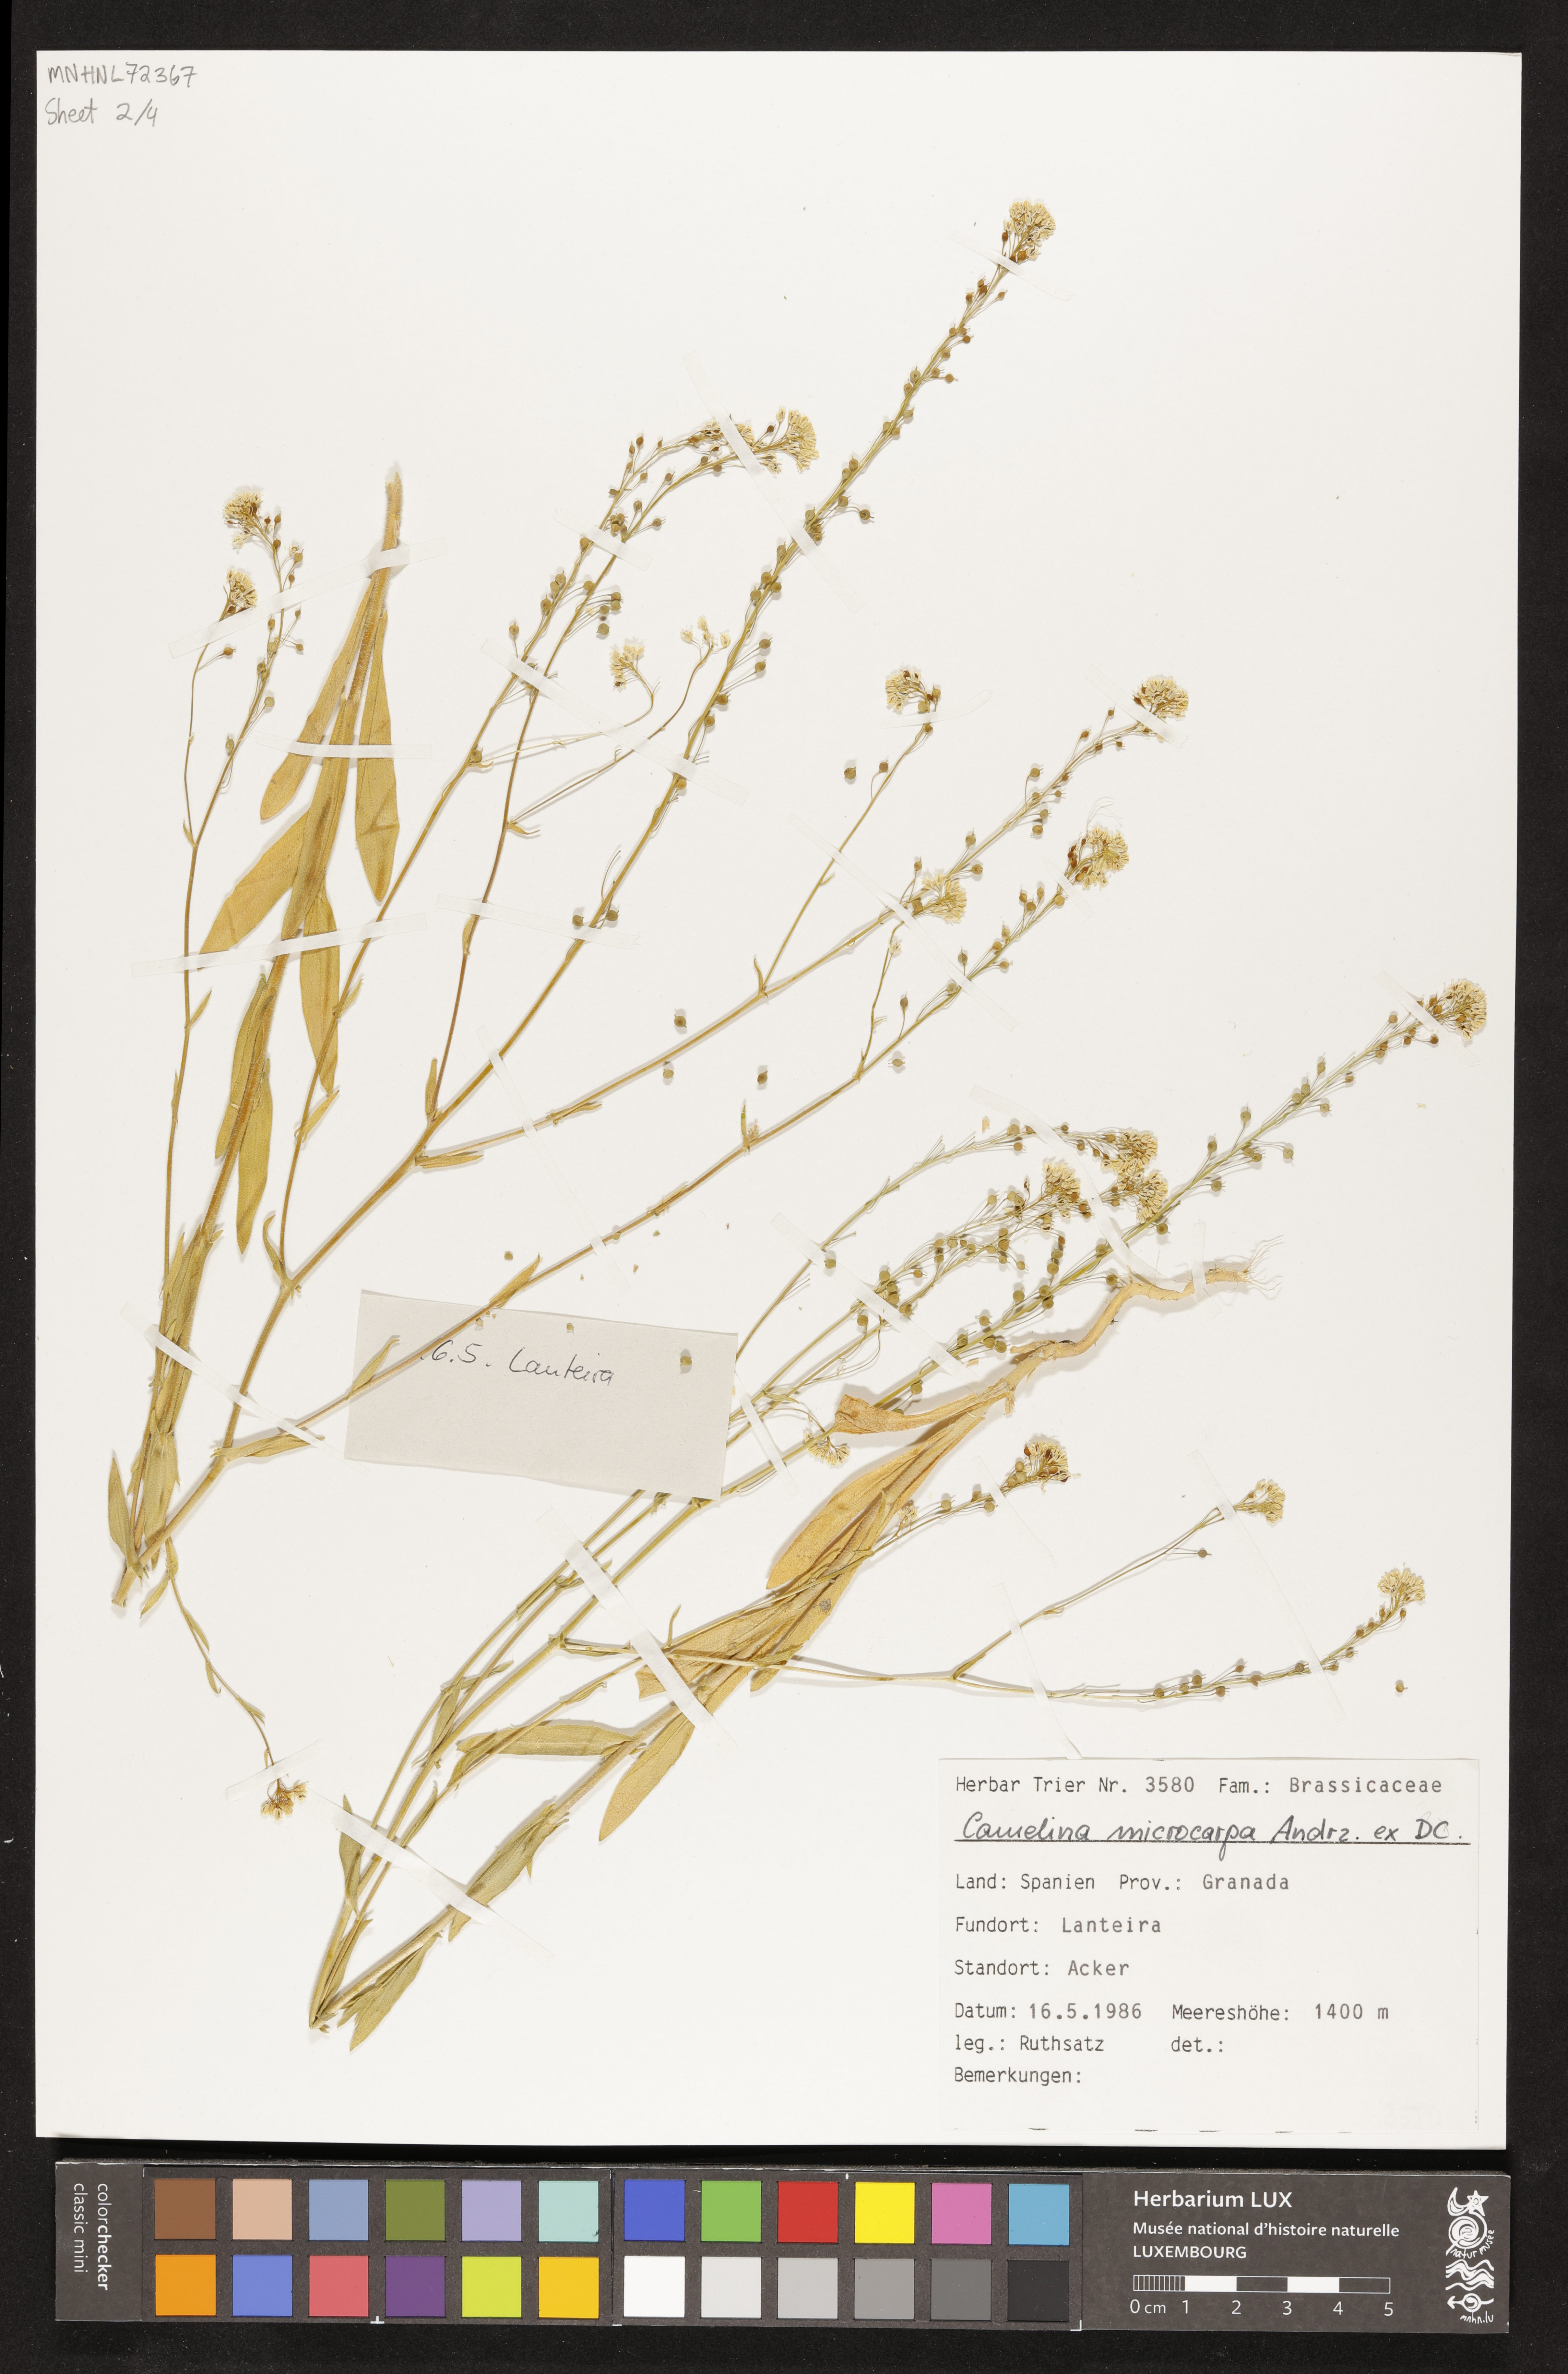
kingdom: Plantae
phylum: Tracheophyta
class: Magnoliopsida
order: Brassicales
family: Brassicaceae
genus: Camelina
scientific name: Camelina microcarpa
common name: Lesser gold-of-pleasure
